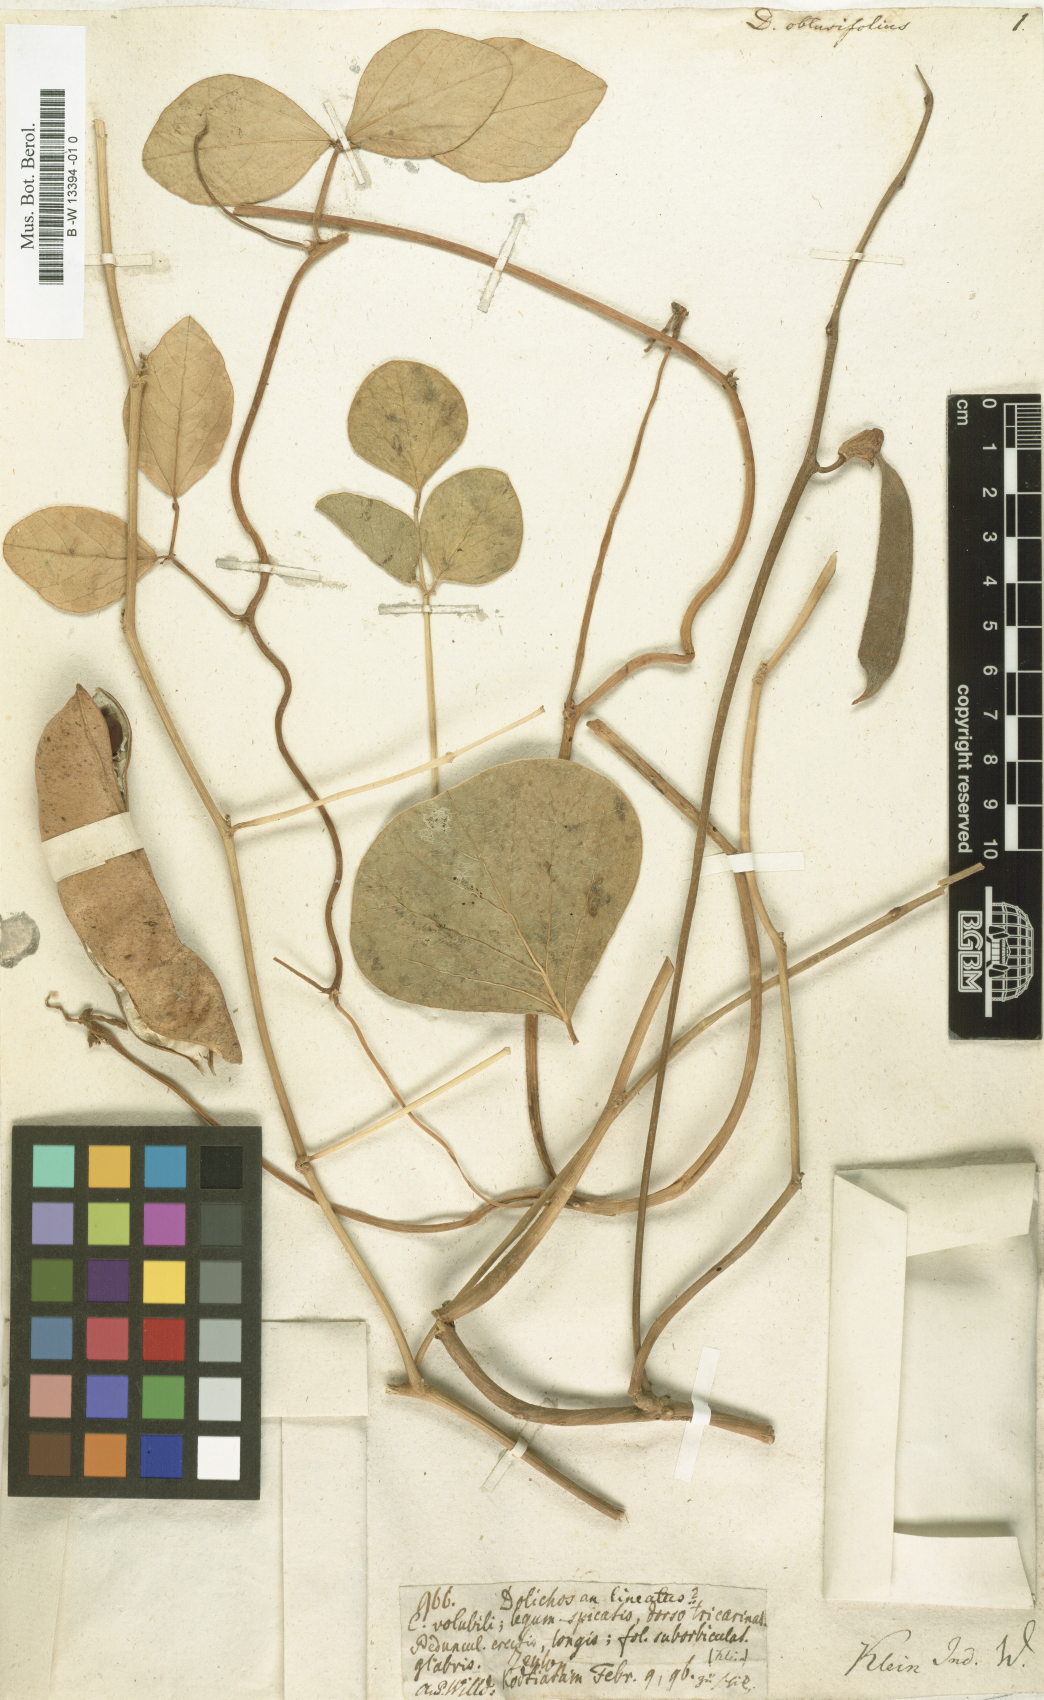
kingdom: Plantae
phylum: Tracheophyta
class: Magnoliopsida
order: Fabales
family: Fabaceae
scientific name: Fabaceae
